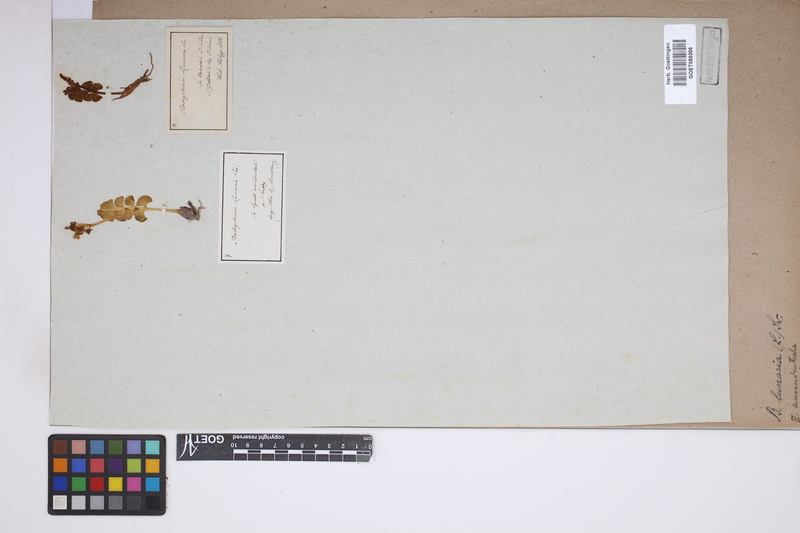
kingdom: Plantae
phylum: Tracheophyta
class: Polypodiopsida
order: Ophioglossales
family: Ophioglossaceae
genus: Botrychium
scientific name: Botrychium lunaria
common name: Moonwort
